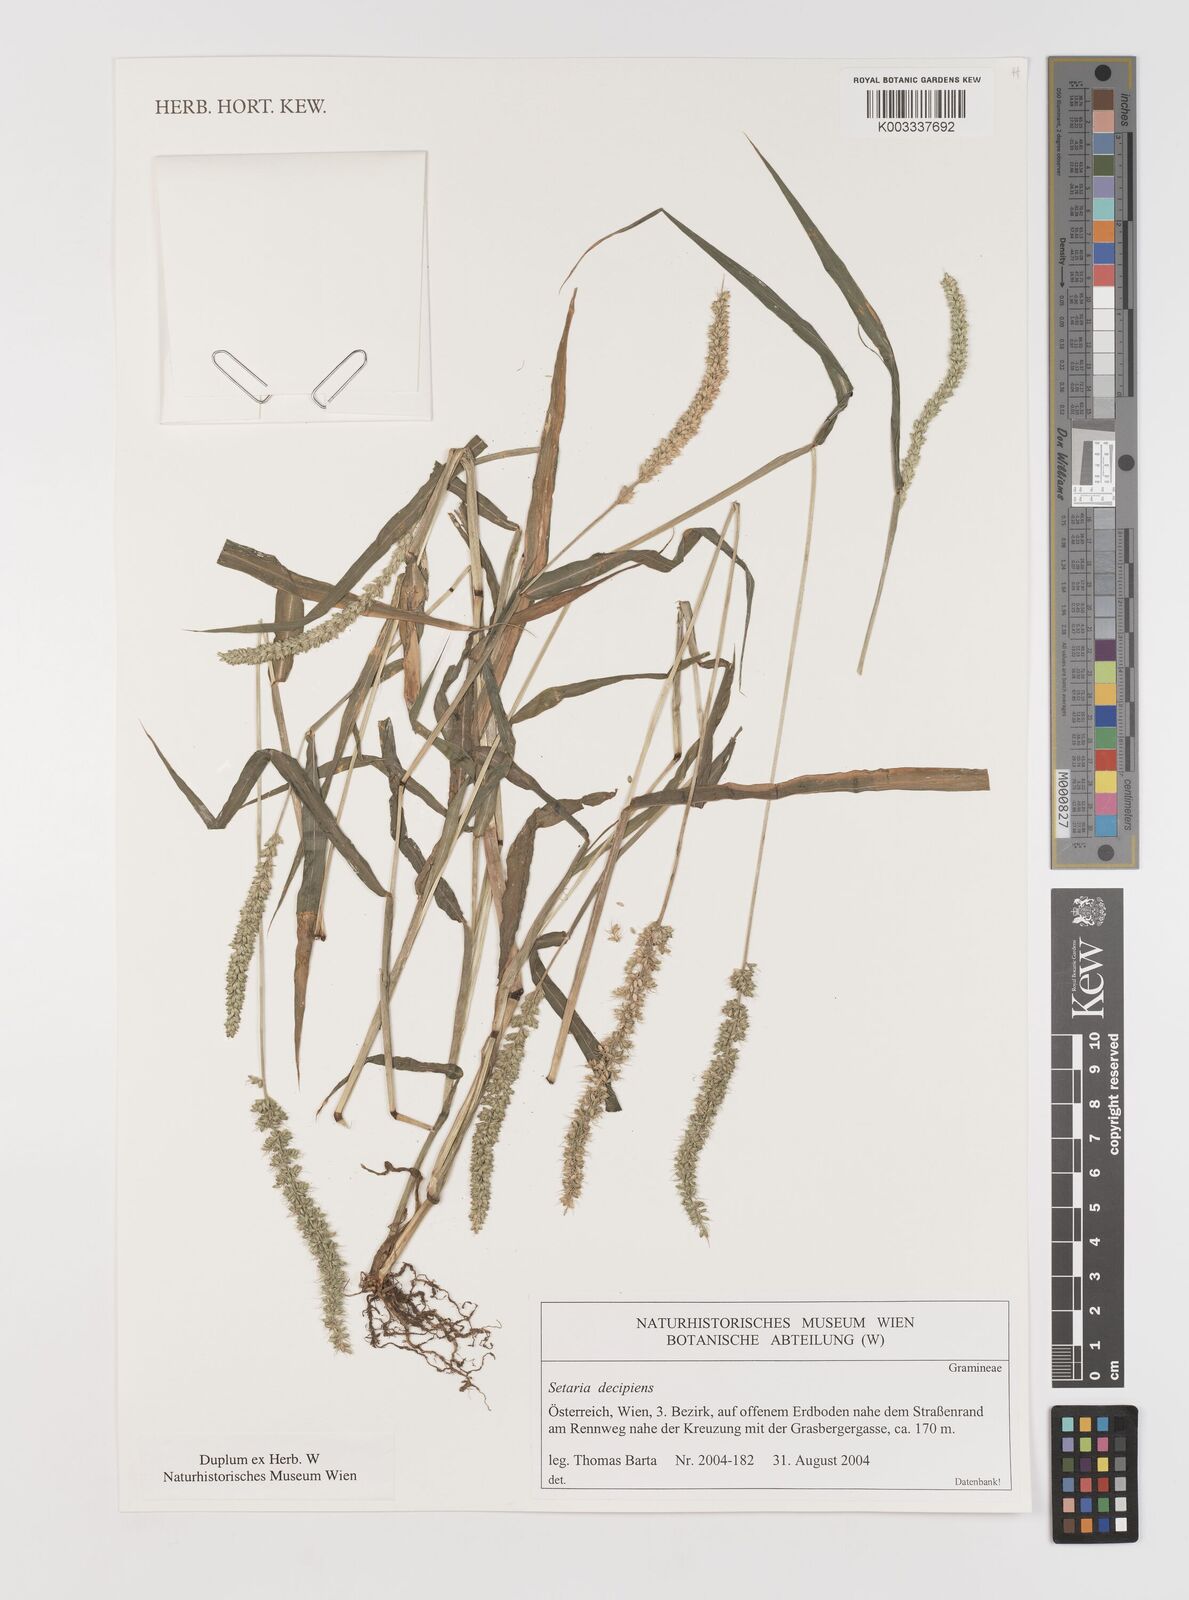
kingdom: Plantae
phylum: Tracheophyta
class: Liliopsida
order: Poales
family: Poaceae
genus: Setaria
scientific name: Setaria verticillata
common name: Hooked bristlegrass
